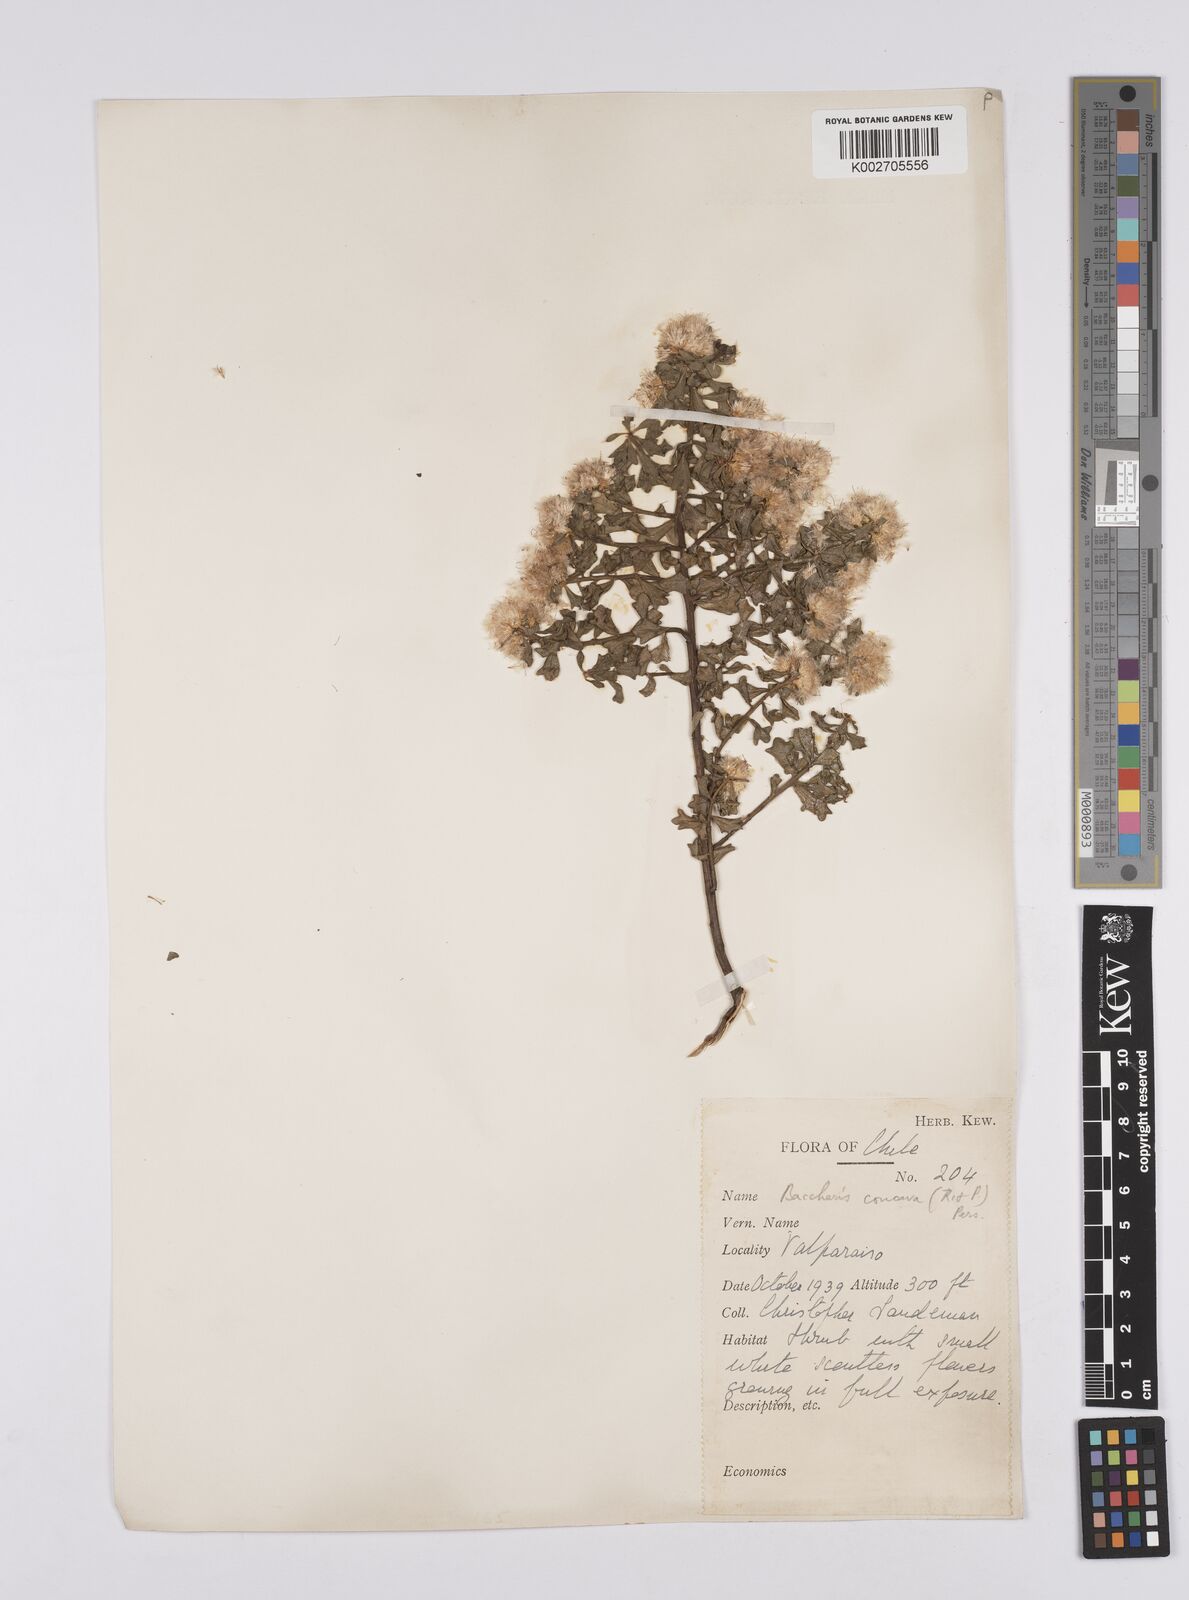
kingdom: Plantae
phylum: Tracheophyta
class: Magnoliopsida
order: Asterales
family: Asteraceae
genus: Baccharis
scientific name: Baccharis concava
